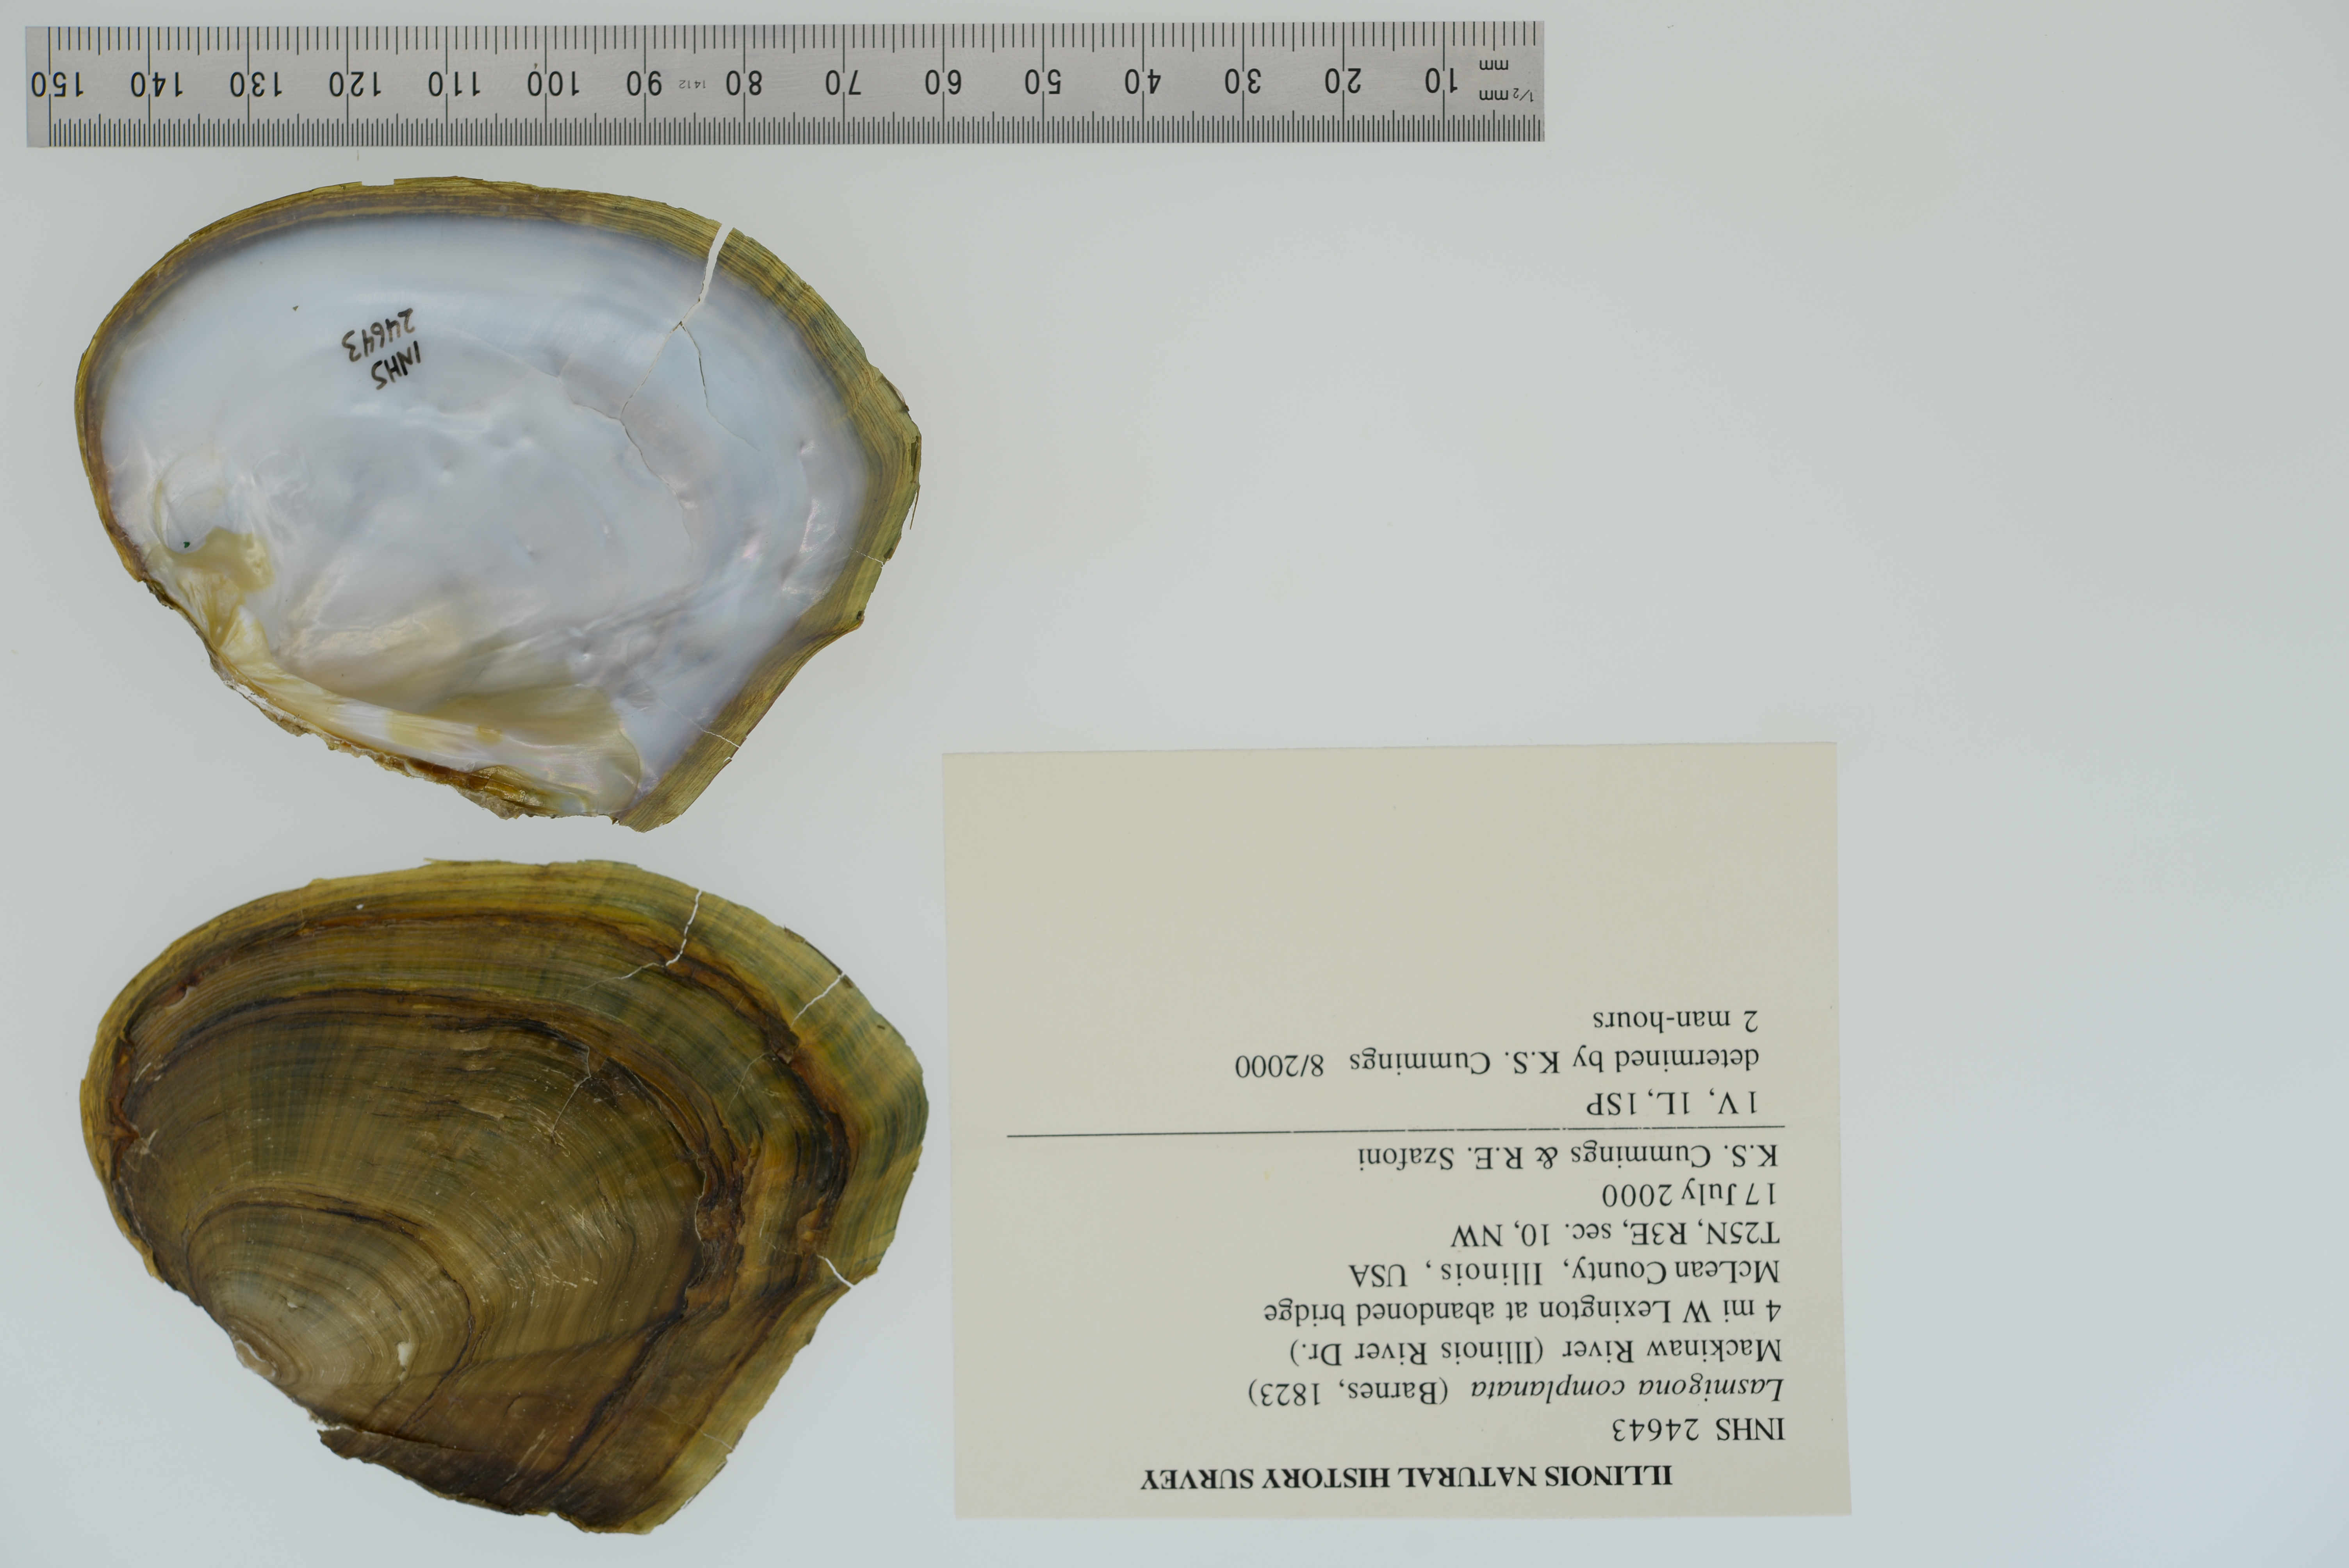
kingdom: Animalia
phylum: Mollusca
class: Bivalvia
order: Unionida
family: Unionidae
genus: Lasmigona
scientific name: Lasmigona complanata
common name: White heelsplitter
